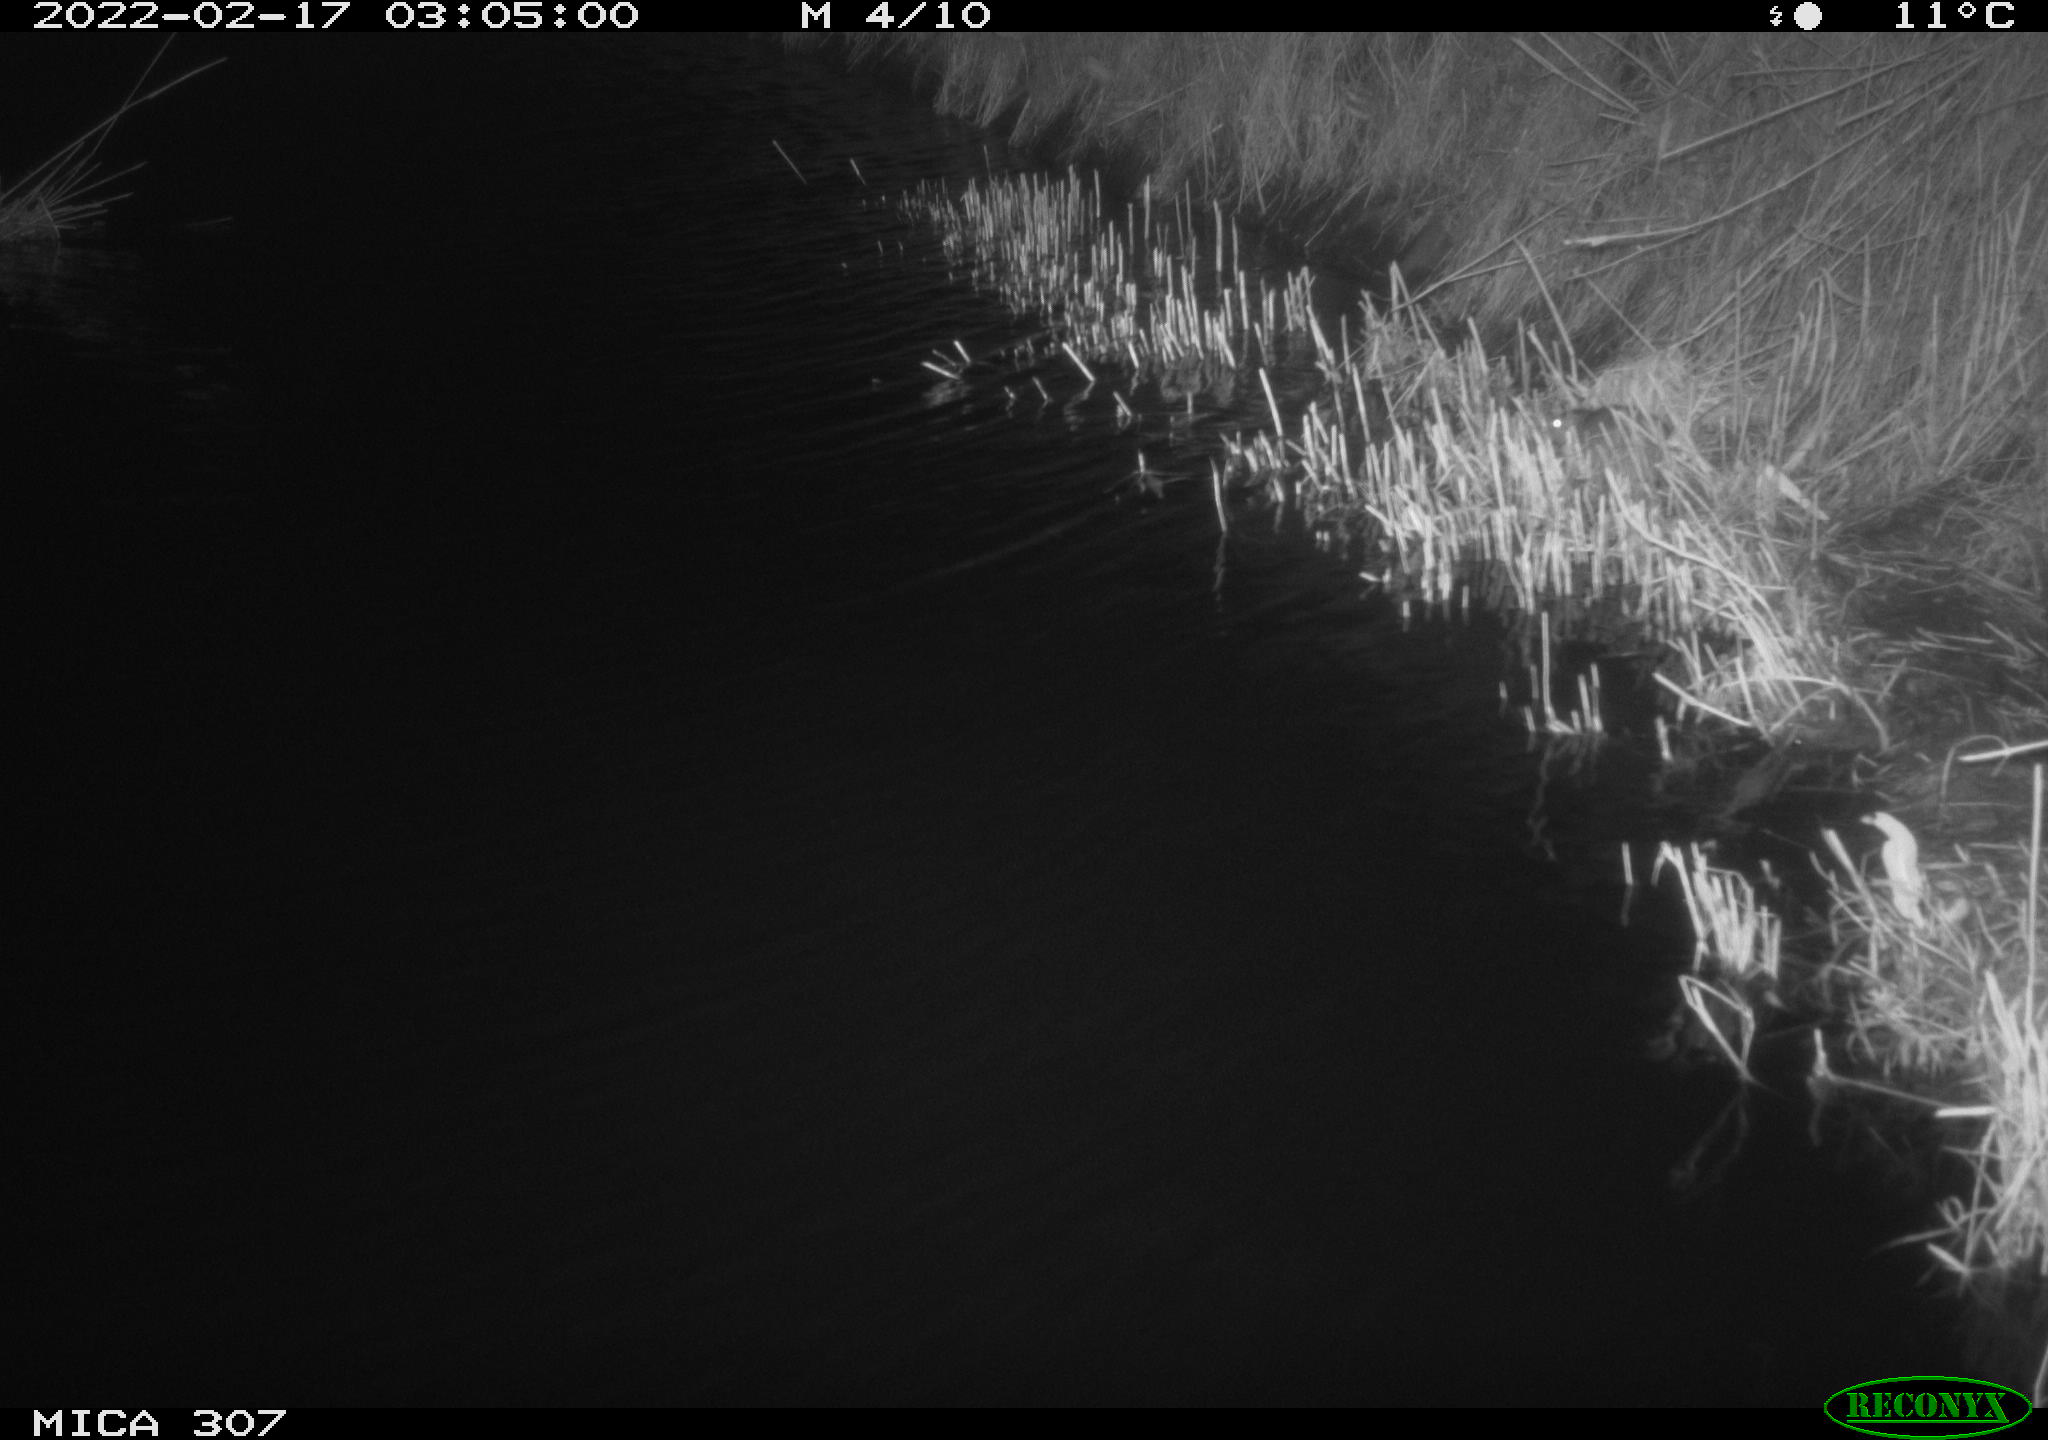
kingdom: Animalia
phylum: Chordata
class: Mammalia
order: Rodentia
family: Muridae
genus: Rattus
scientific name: Rattus norvegicus
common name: Brown rat
